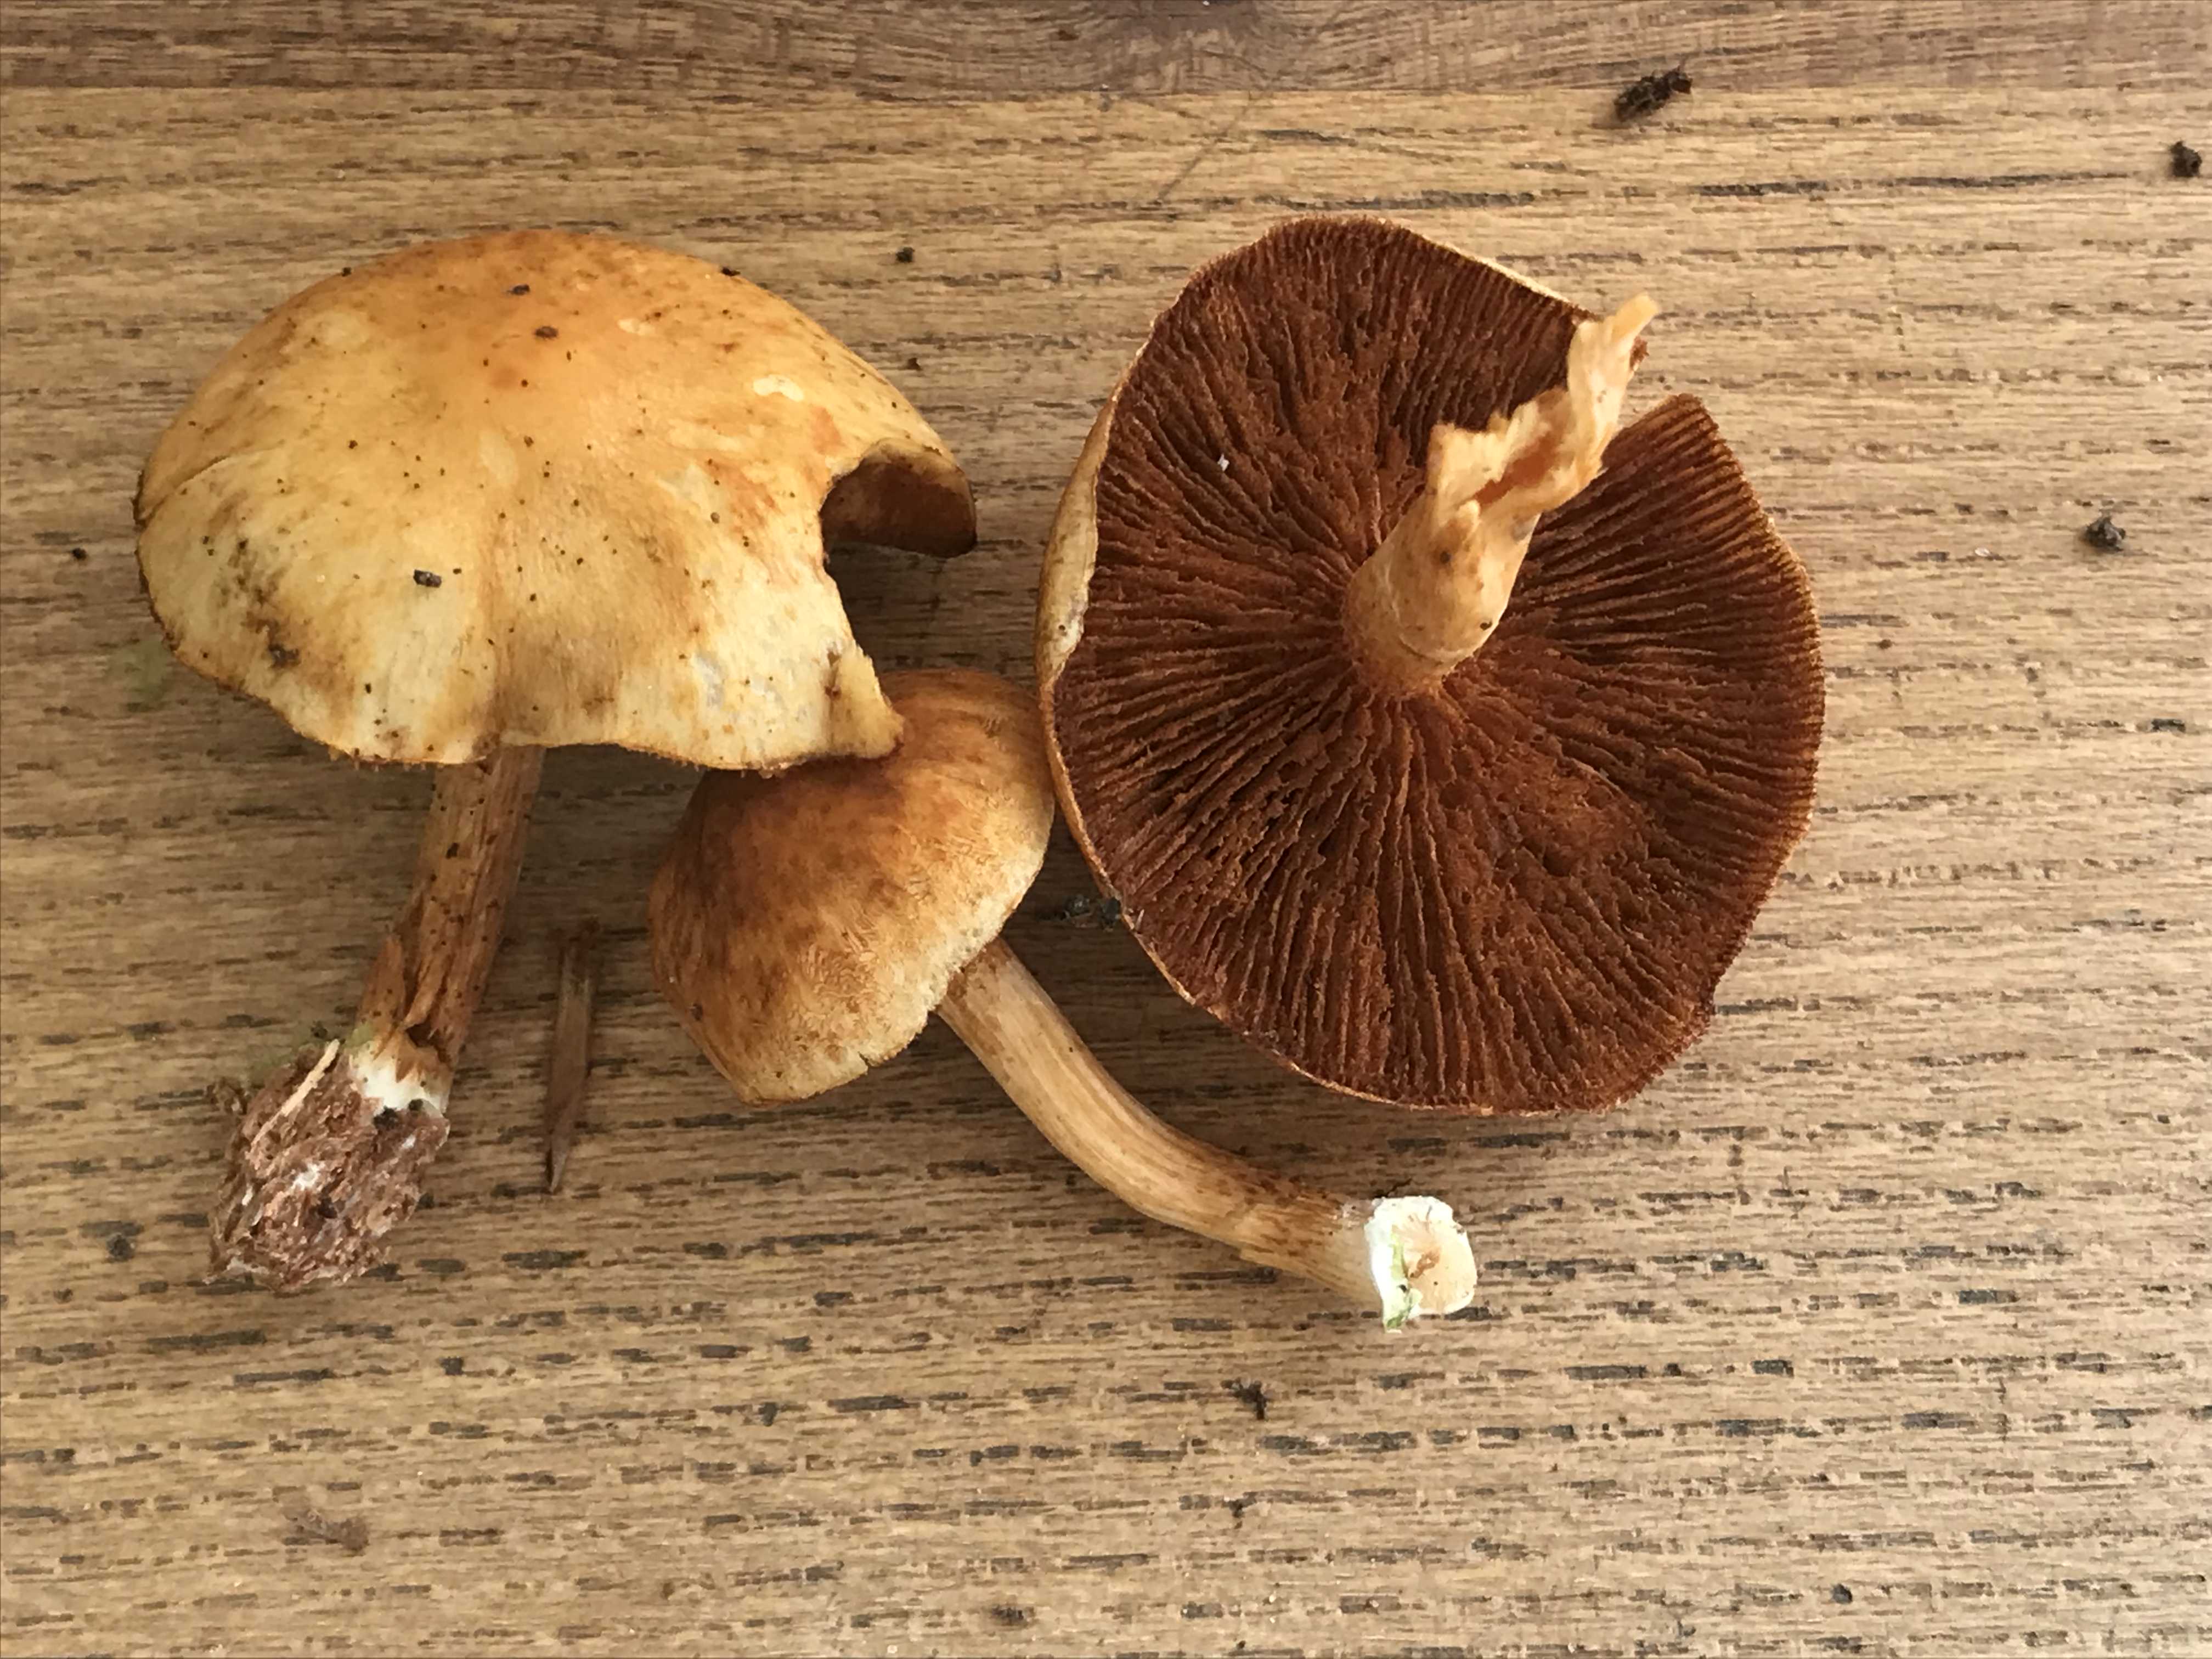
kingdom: Fungi
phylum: Basidiomycota
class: Agaricomycetes
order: Agaricales
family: Hymenogastraceae
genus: Gymnopilus
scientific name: Gymnopilus penetrans
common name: plettet flammehat
